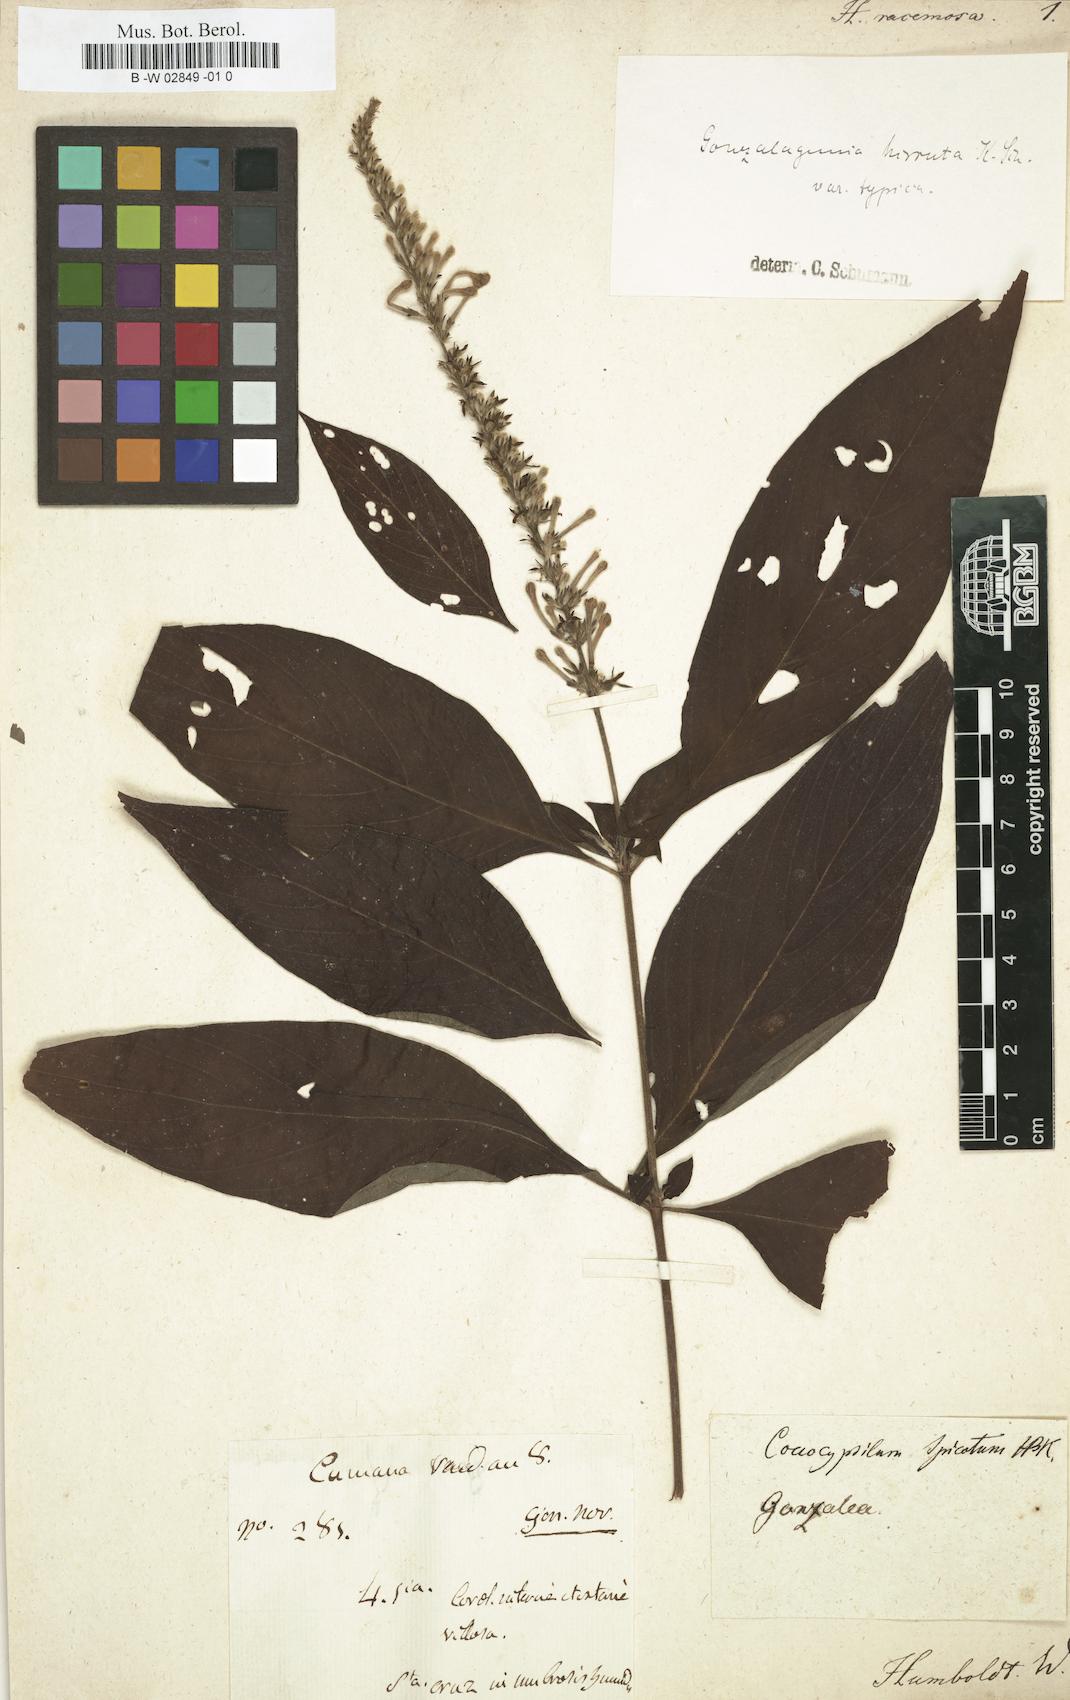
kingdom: Plantae
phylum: Tracheophyta
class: Magnoliopsida
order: Gentianales
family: Rubiaceae
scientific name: Rubiaceae
